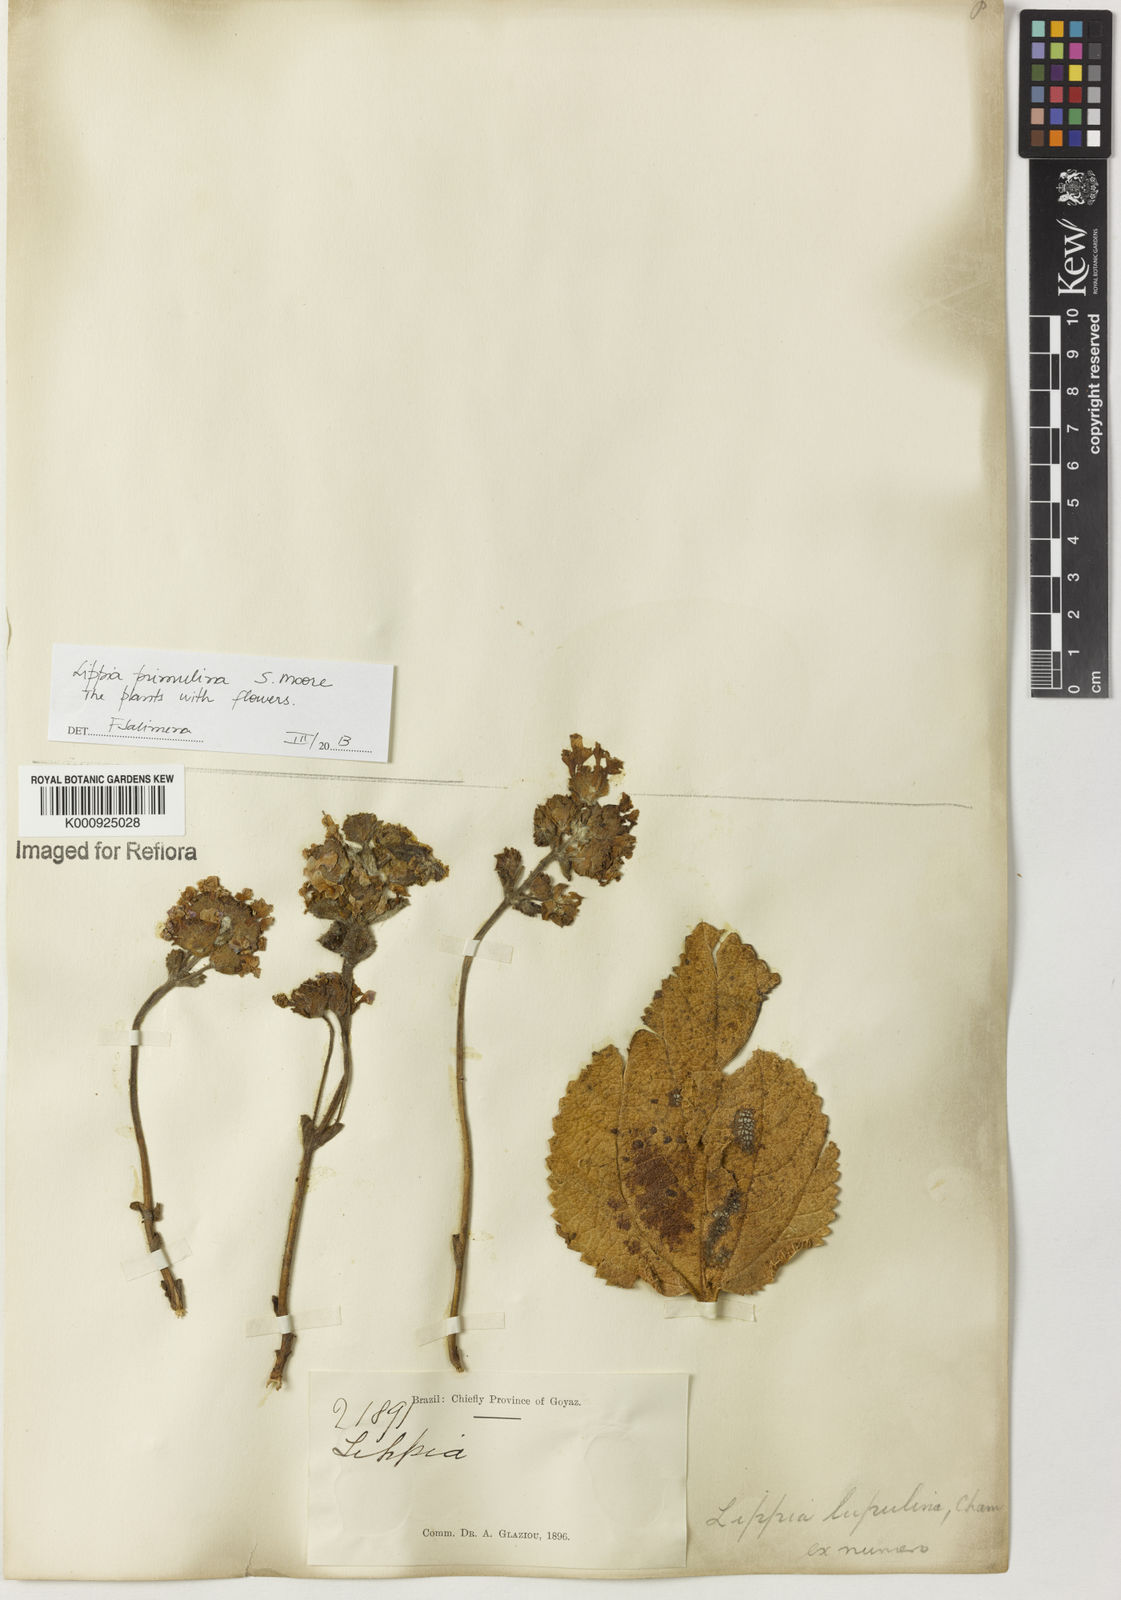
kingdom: Plantae
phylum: Tracheophyta
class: Magnoliopsida
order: Lamiales
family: Verbenaceae
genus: Lippia
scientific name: Lippia primulina
